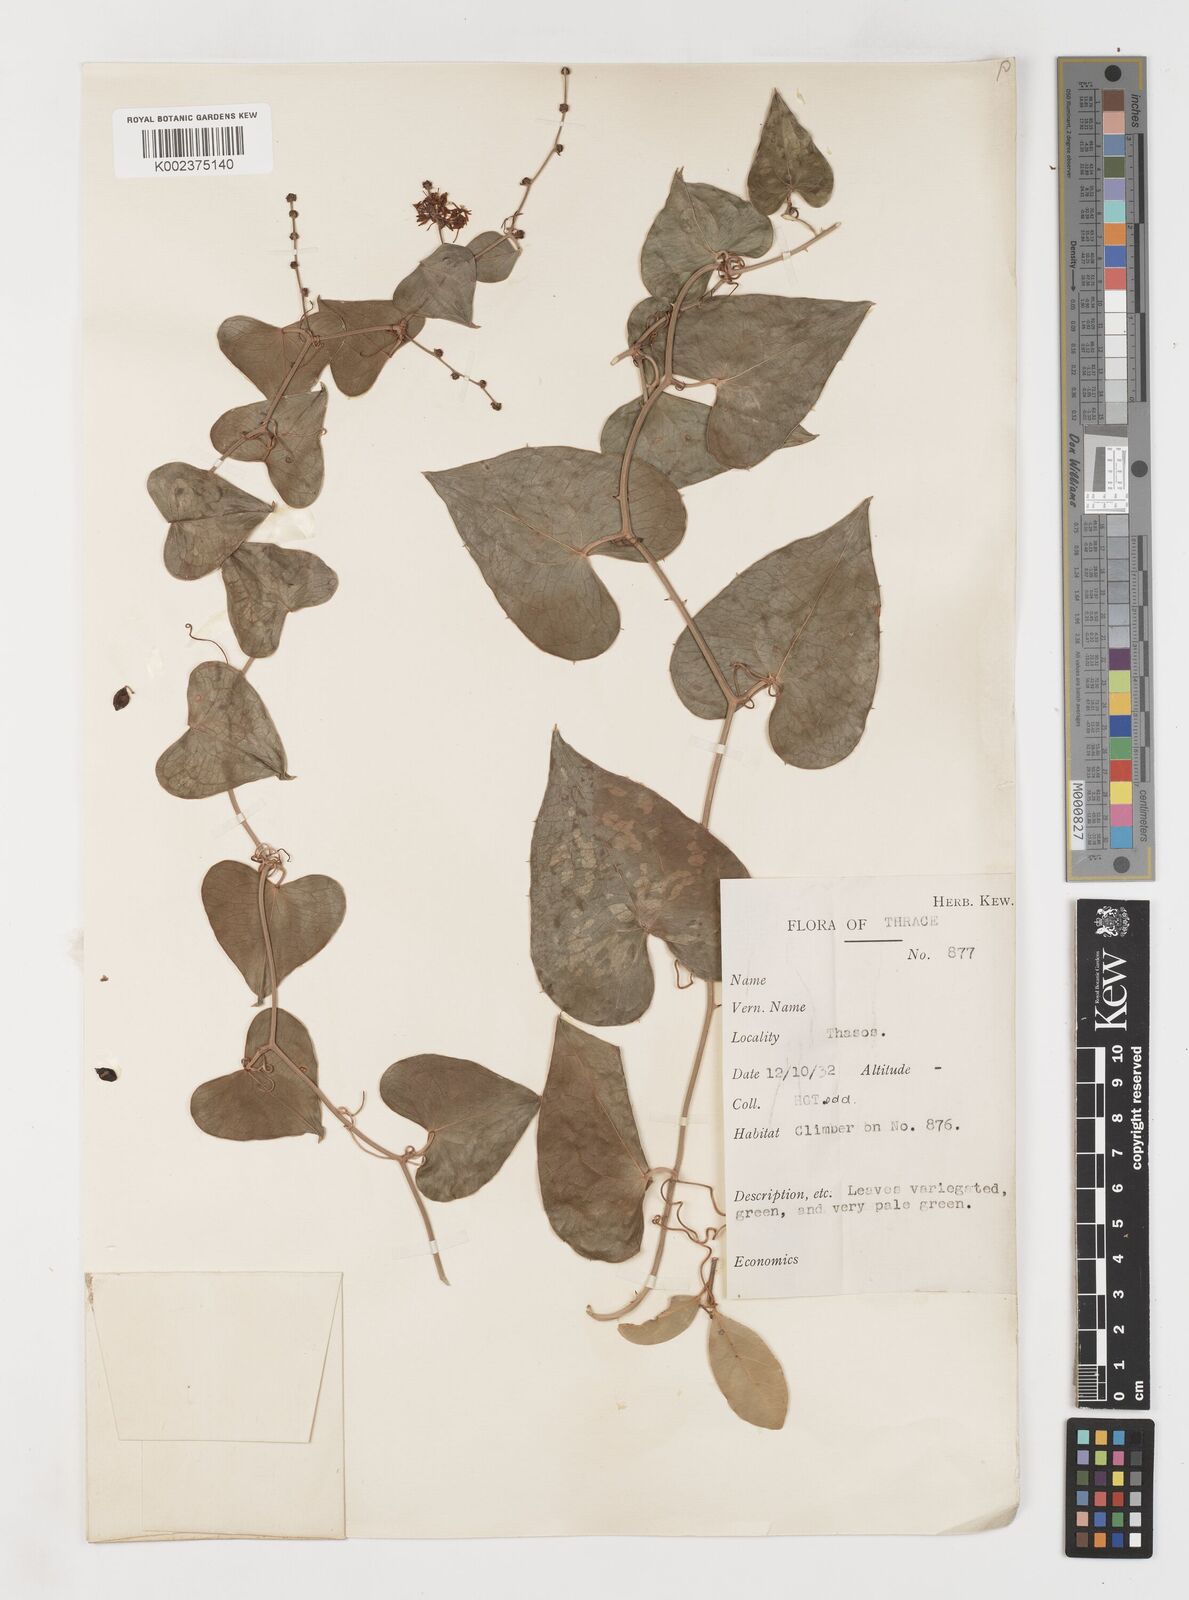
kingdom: Plantae
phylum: Tracheophyta
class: Liliopsida
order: Liliales
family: Smilacaceae
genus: Smilax
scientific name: Smilax aspera
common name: Common smilax
